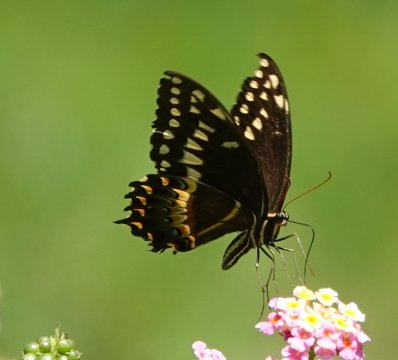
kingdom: Animalia
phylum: Arthropoda
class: Insecta
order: Lepidoptera
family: Papilionidae
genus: Pterourus
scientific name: Pterourus palamedes
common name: Palamedes Swallowtail
